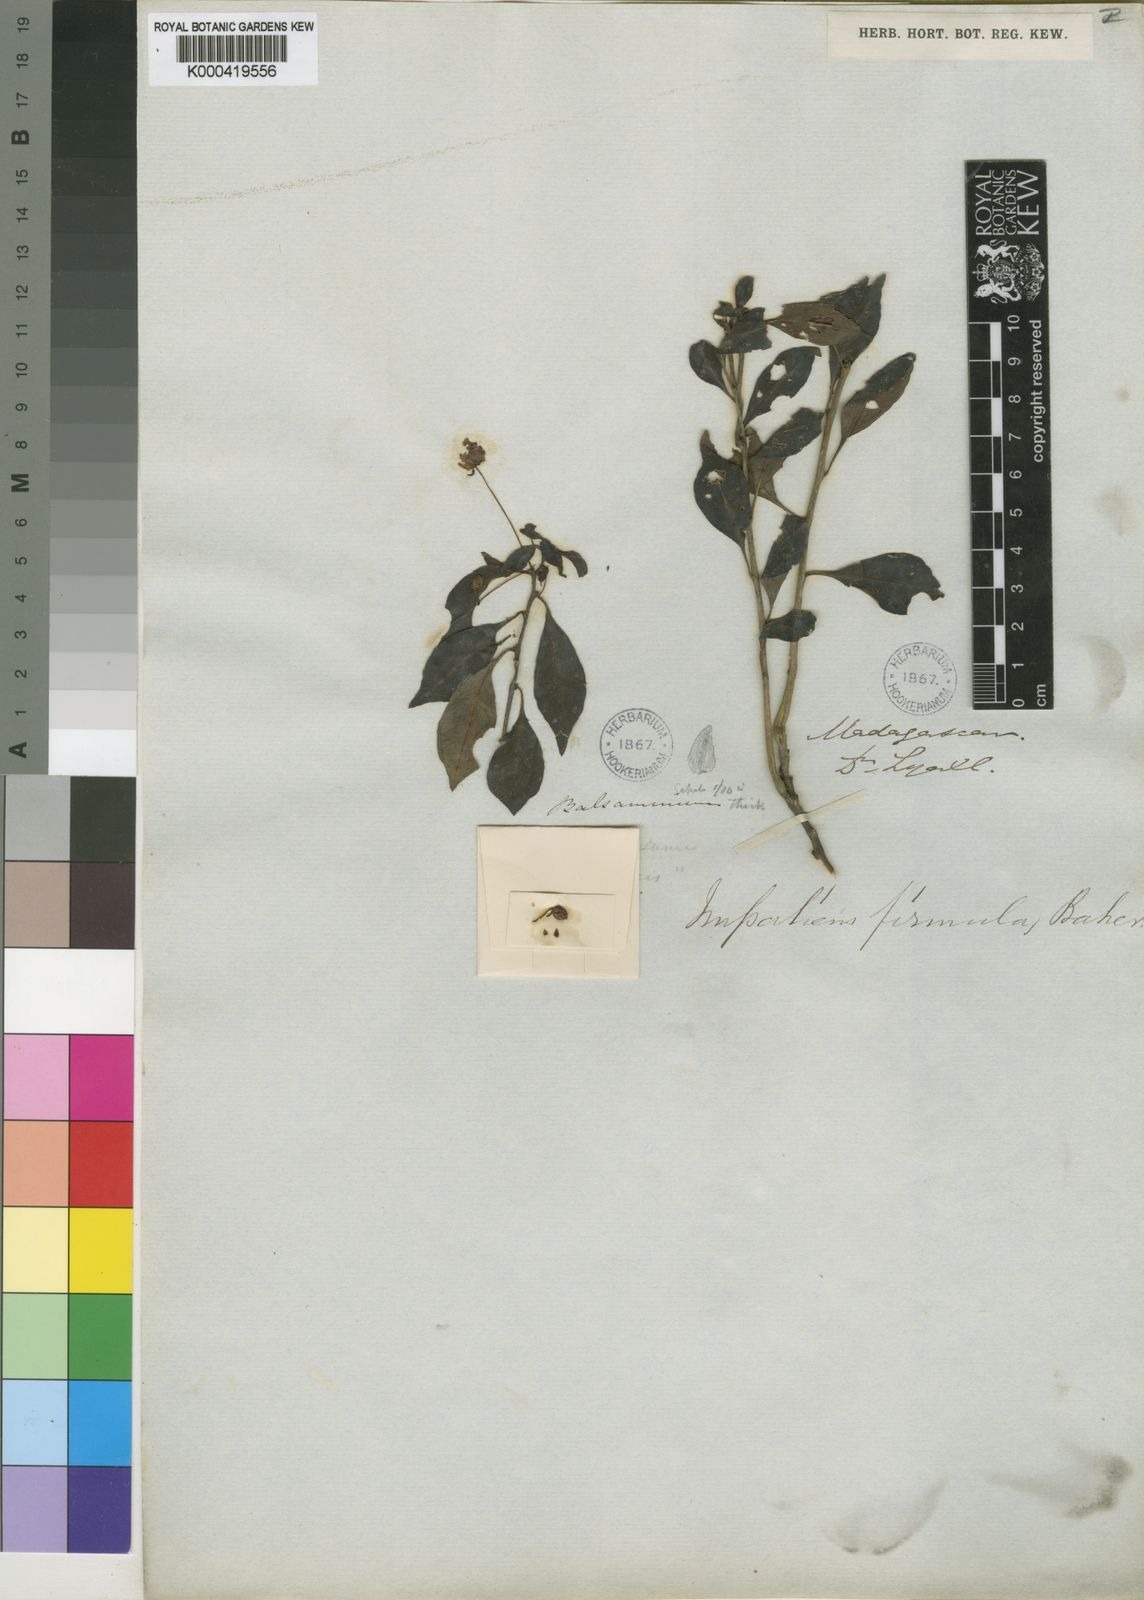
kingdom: Plantae
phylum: Tracheophyta
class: Magnoliopsida
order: Ericales
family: Balsaminaceae
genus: Impatiens
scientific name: Impatiens firmula
